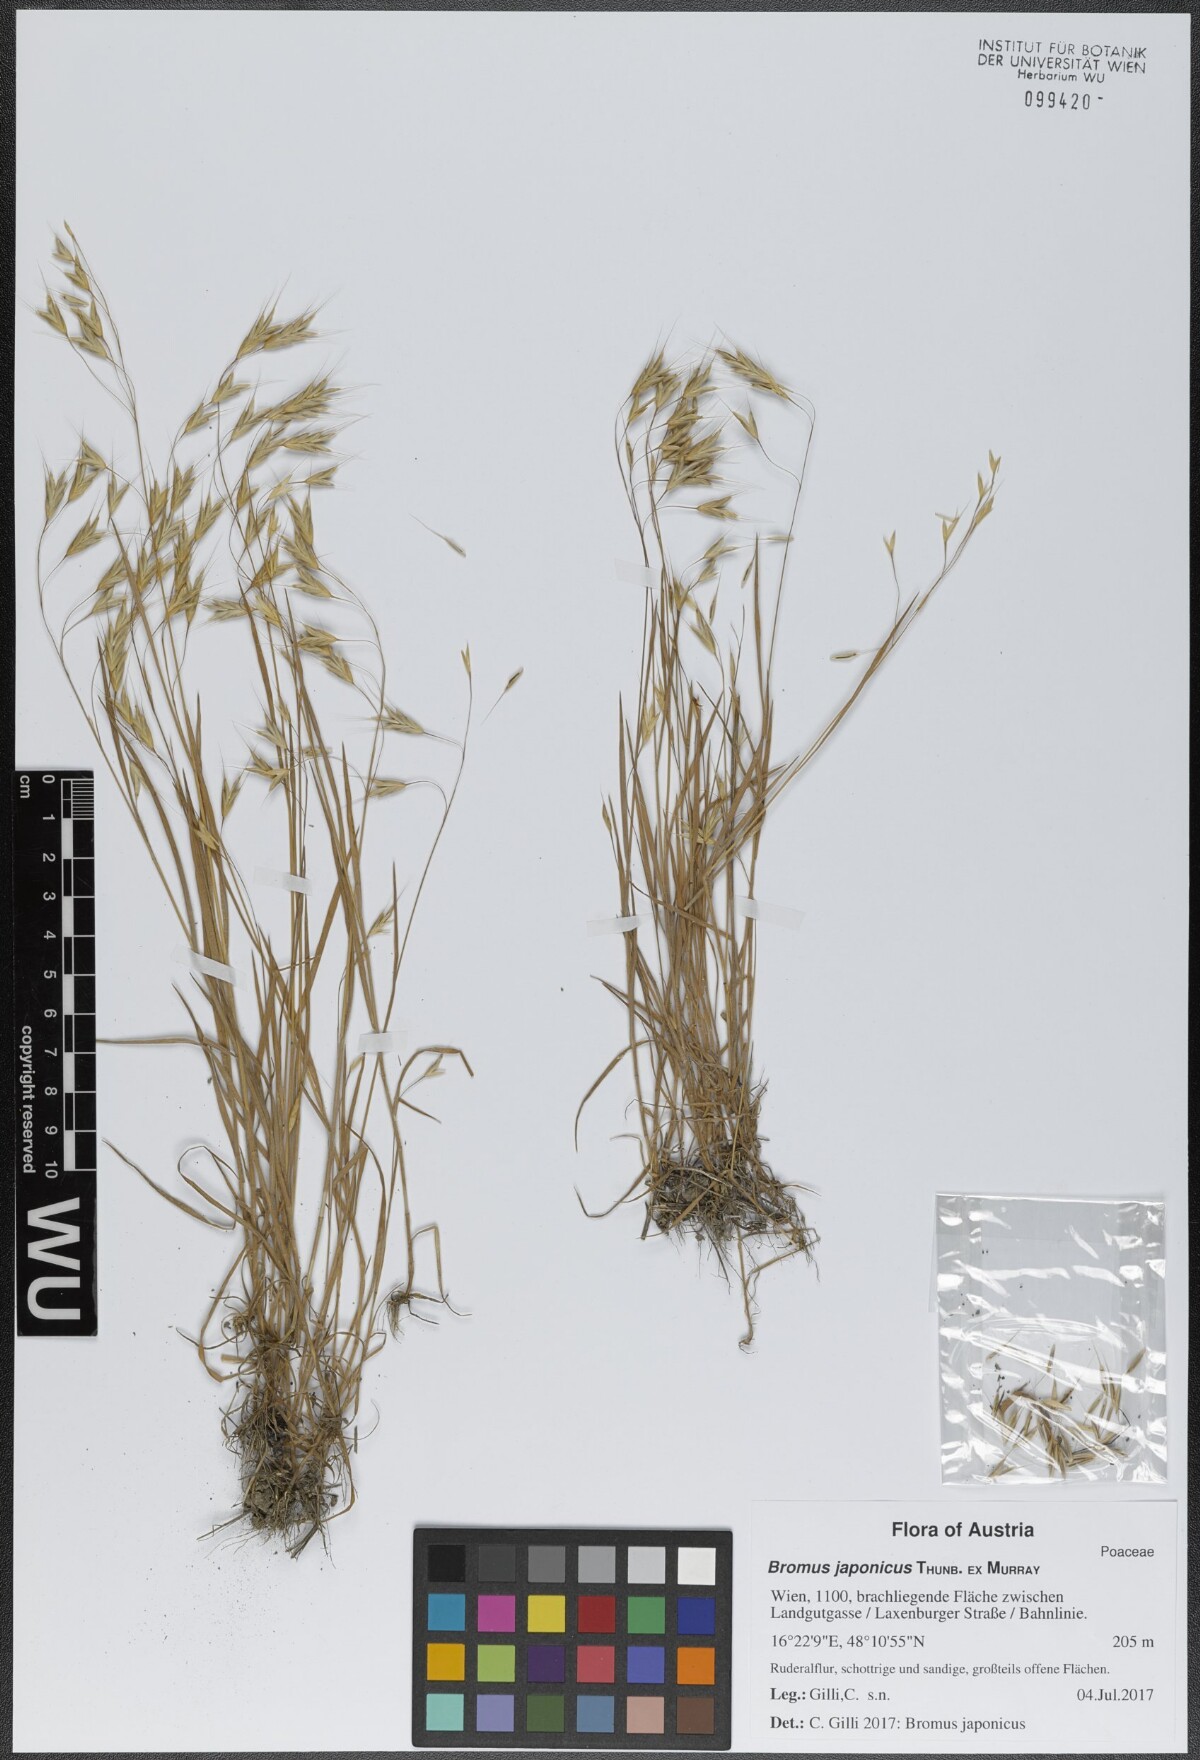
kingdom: Plantae
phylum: Tracheophyta
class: Liliopsida
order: Poales
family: Poaceae
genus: Bromus
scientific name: Bromus japonicus
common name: Japanese brome
